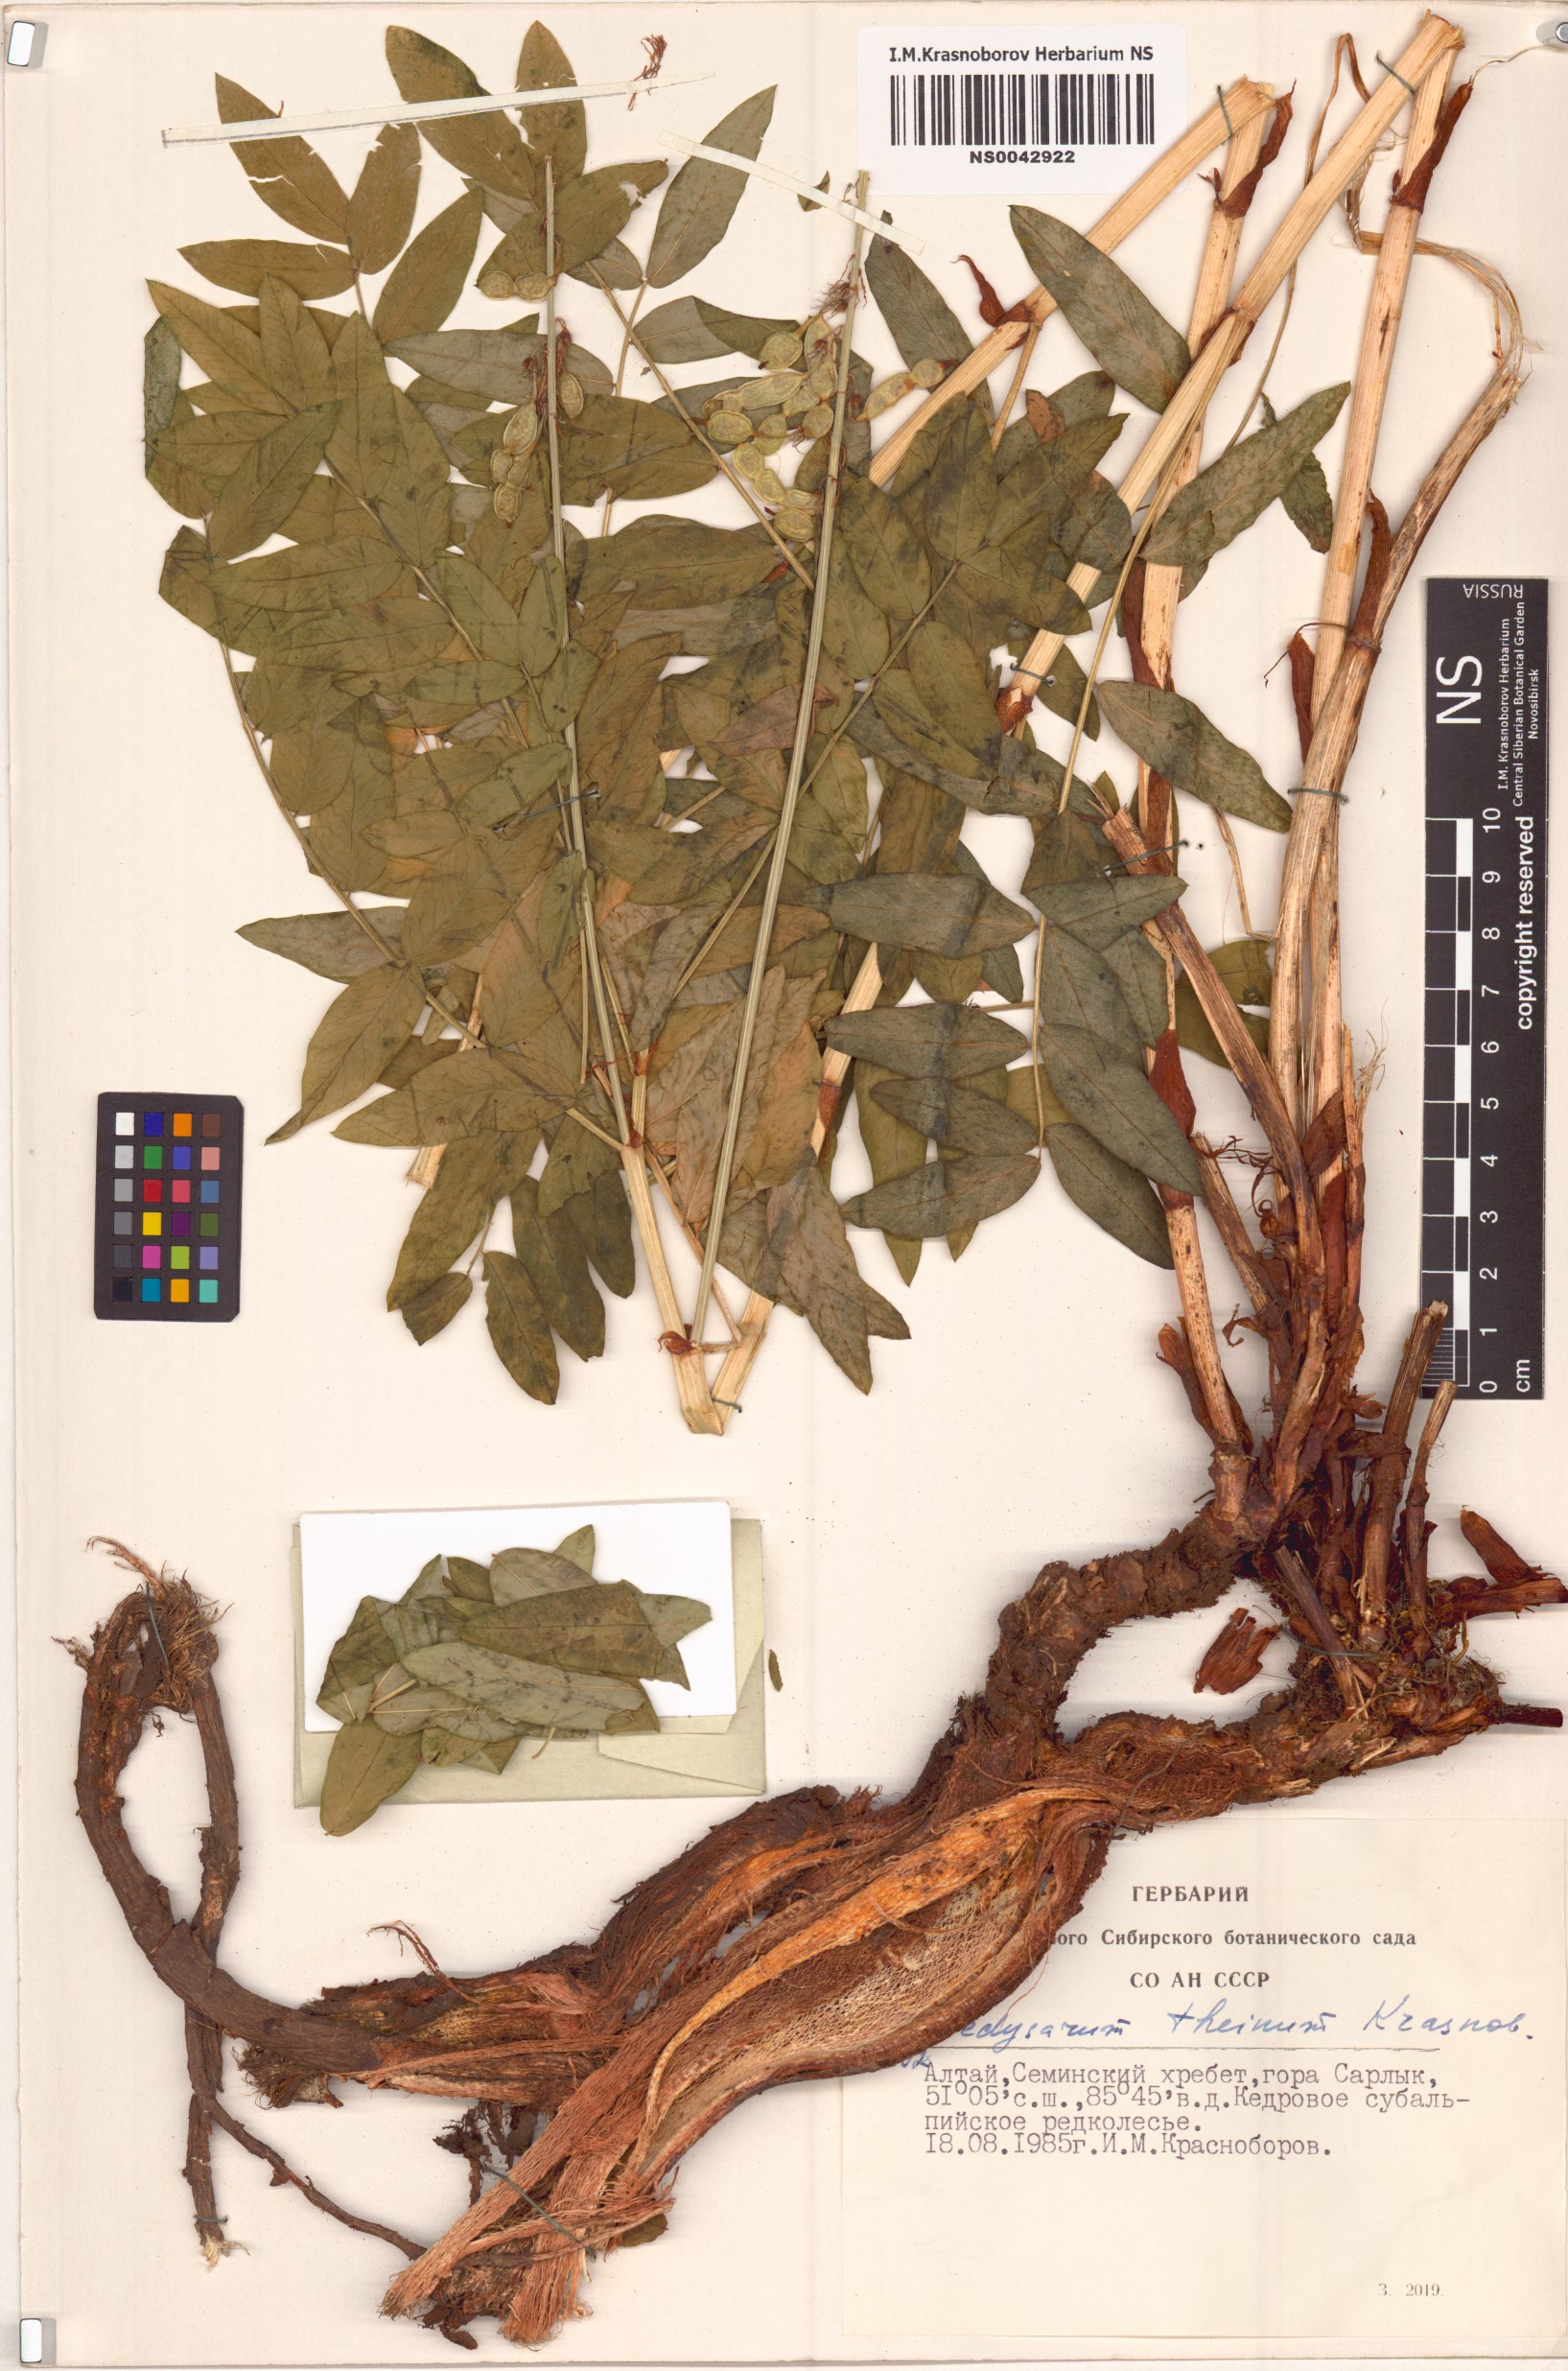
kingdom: Plantae
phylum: Tracheophyta
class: Magnoliopsida
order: Fabales
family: Fabaceae
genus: Hedysarum
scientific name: Hedysarum theinum
